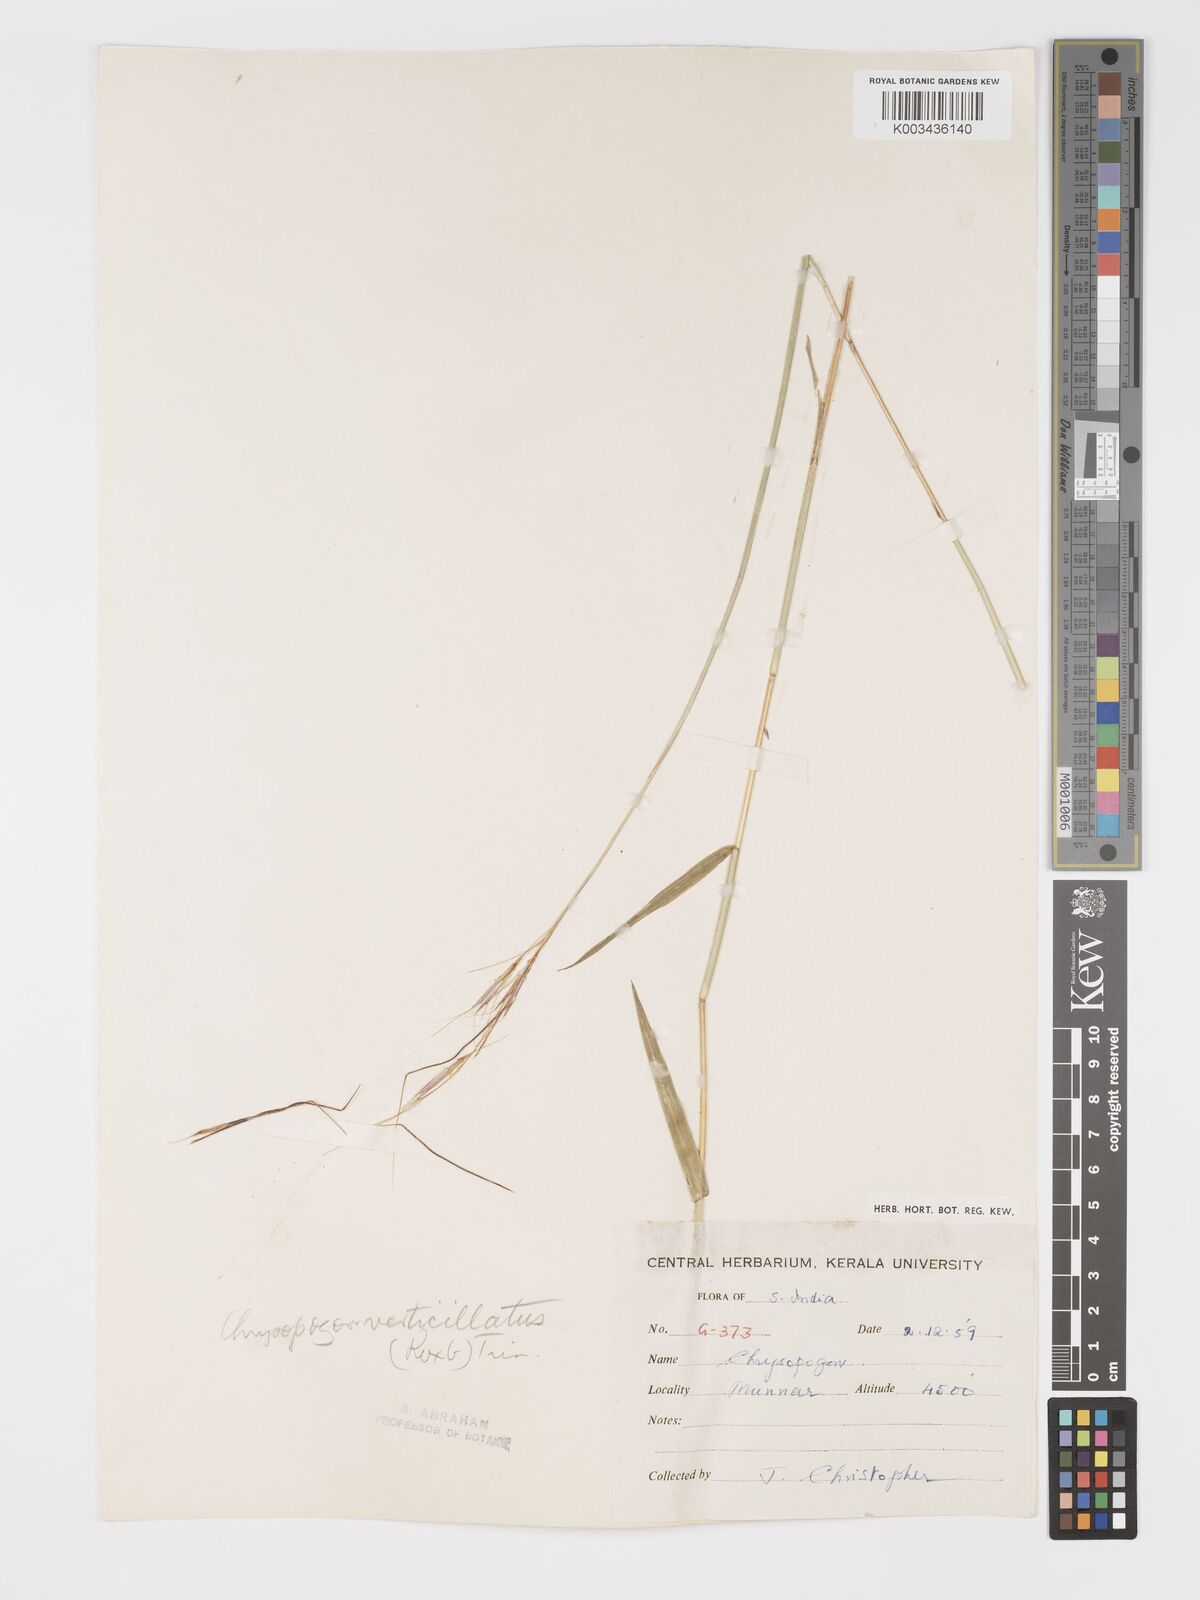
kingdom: Plantae
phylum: Tracheophyta
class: Liliopsida
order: Poales
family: Poaceae
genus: Chrysopogon
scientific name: Chrysopogon verticillatus
